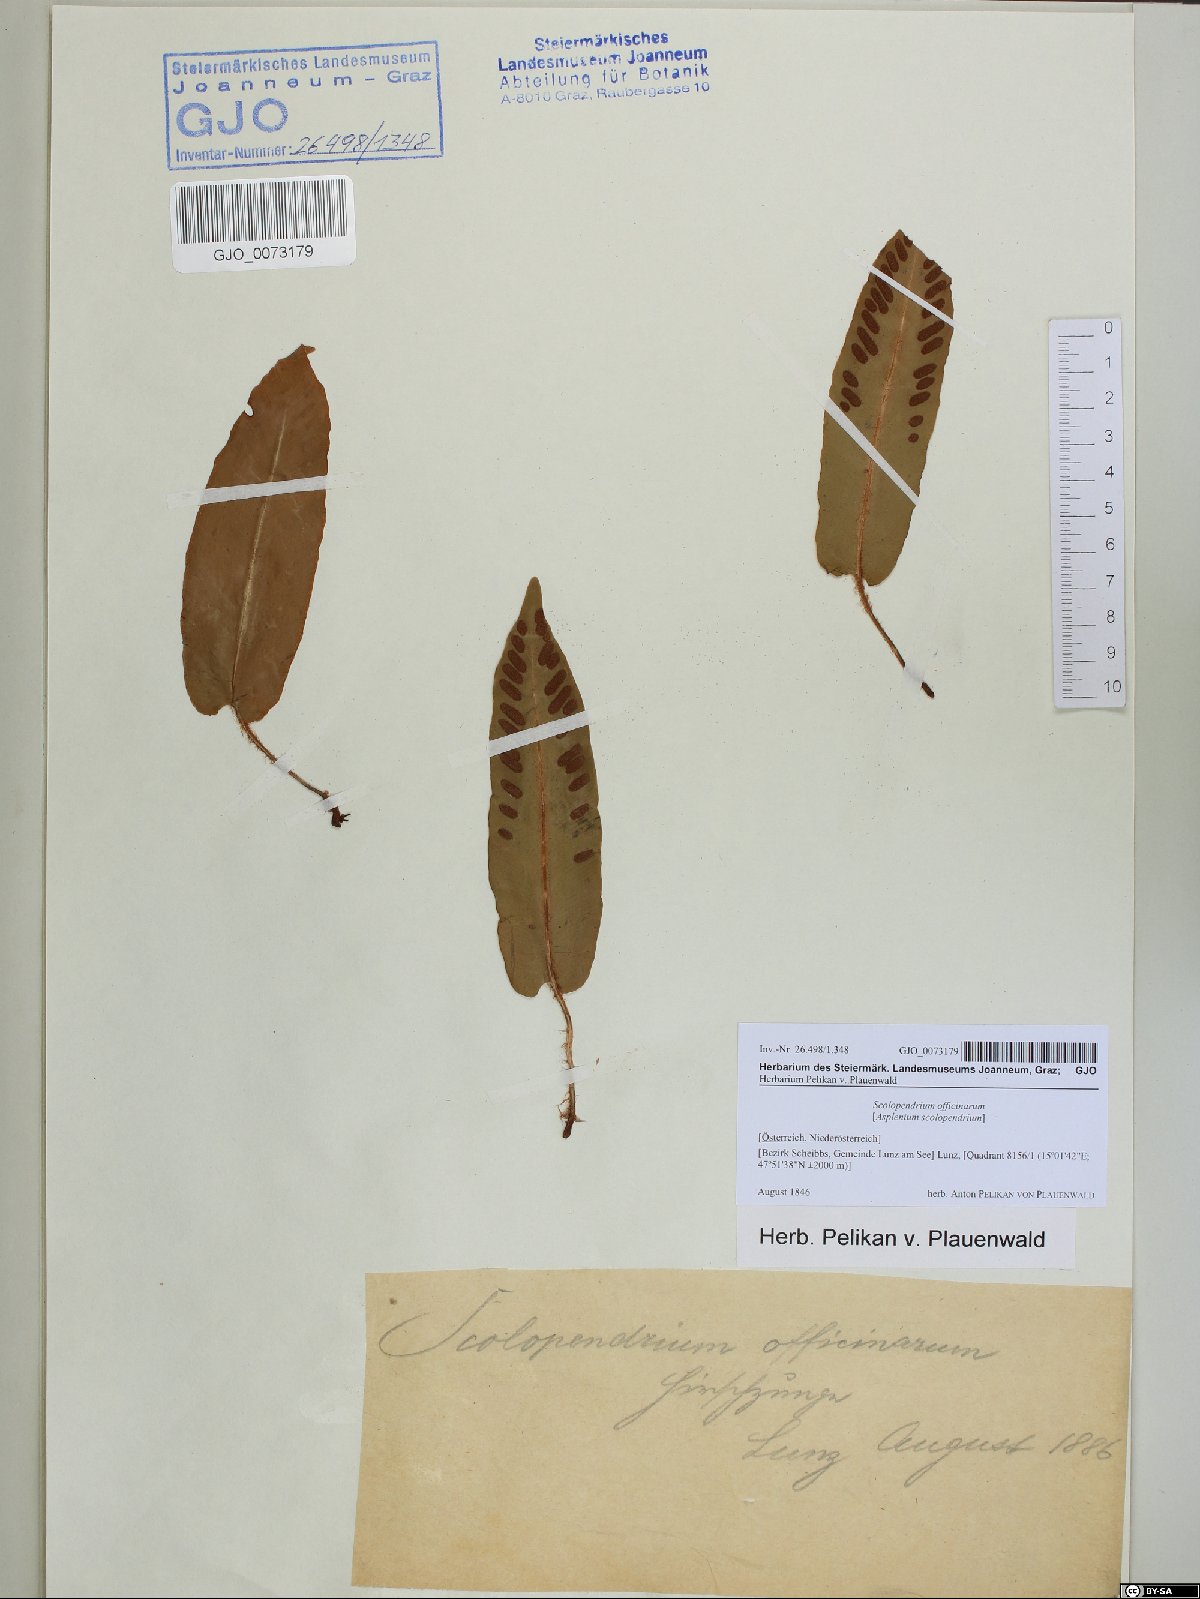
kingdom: Plantae
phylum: Tracheophyta
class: Polypodiopsida
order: Polypodiales
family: Aspleniaceae
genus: Asplenium
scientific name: Asplenium scolopendrium
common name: Hart's-tongue fern
